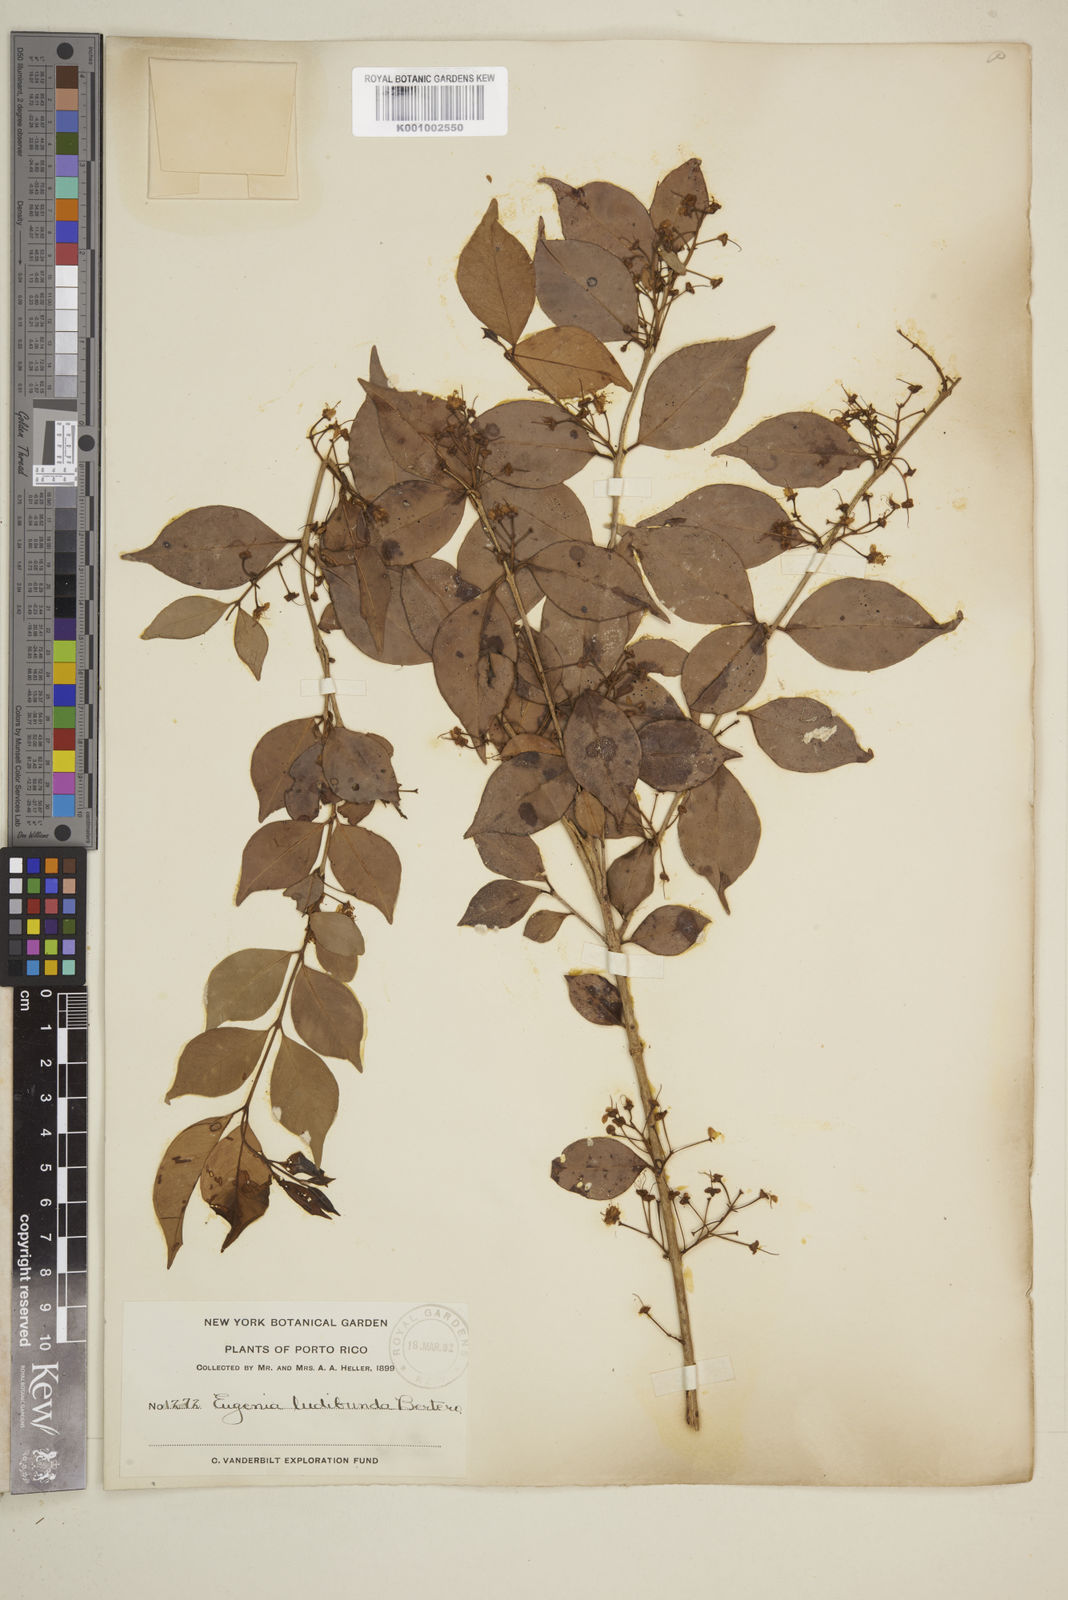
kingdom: Plantae
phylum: Tracheophyta
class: Magnoliopsida
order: Myrtales
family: Myrtaceae
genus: Eugenia
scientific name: Eugenia biflora
